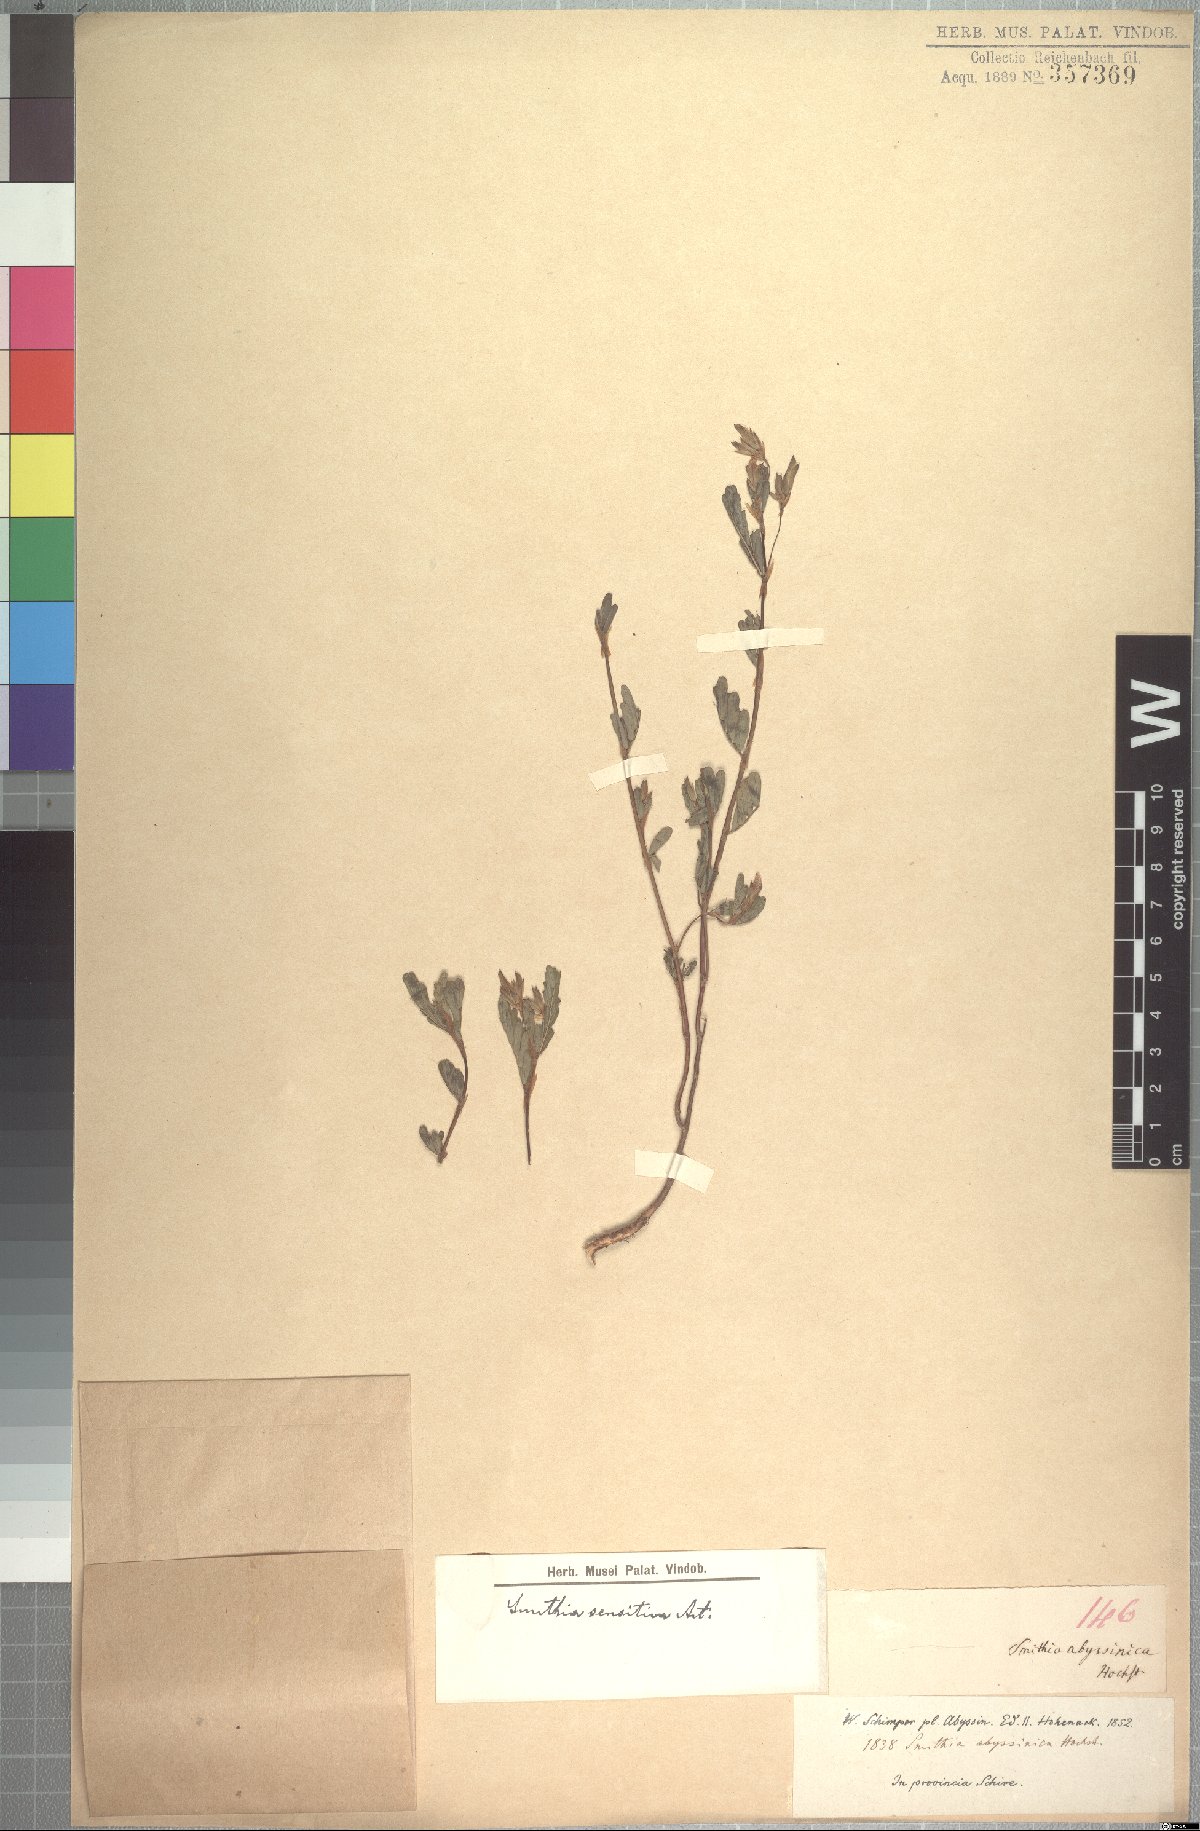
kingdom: Plantae
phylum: Tracheophyta
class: Magnoliopsida
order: Fabales
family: Fabaceae
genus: Smithia
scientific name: Smithia abyssinica
